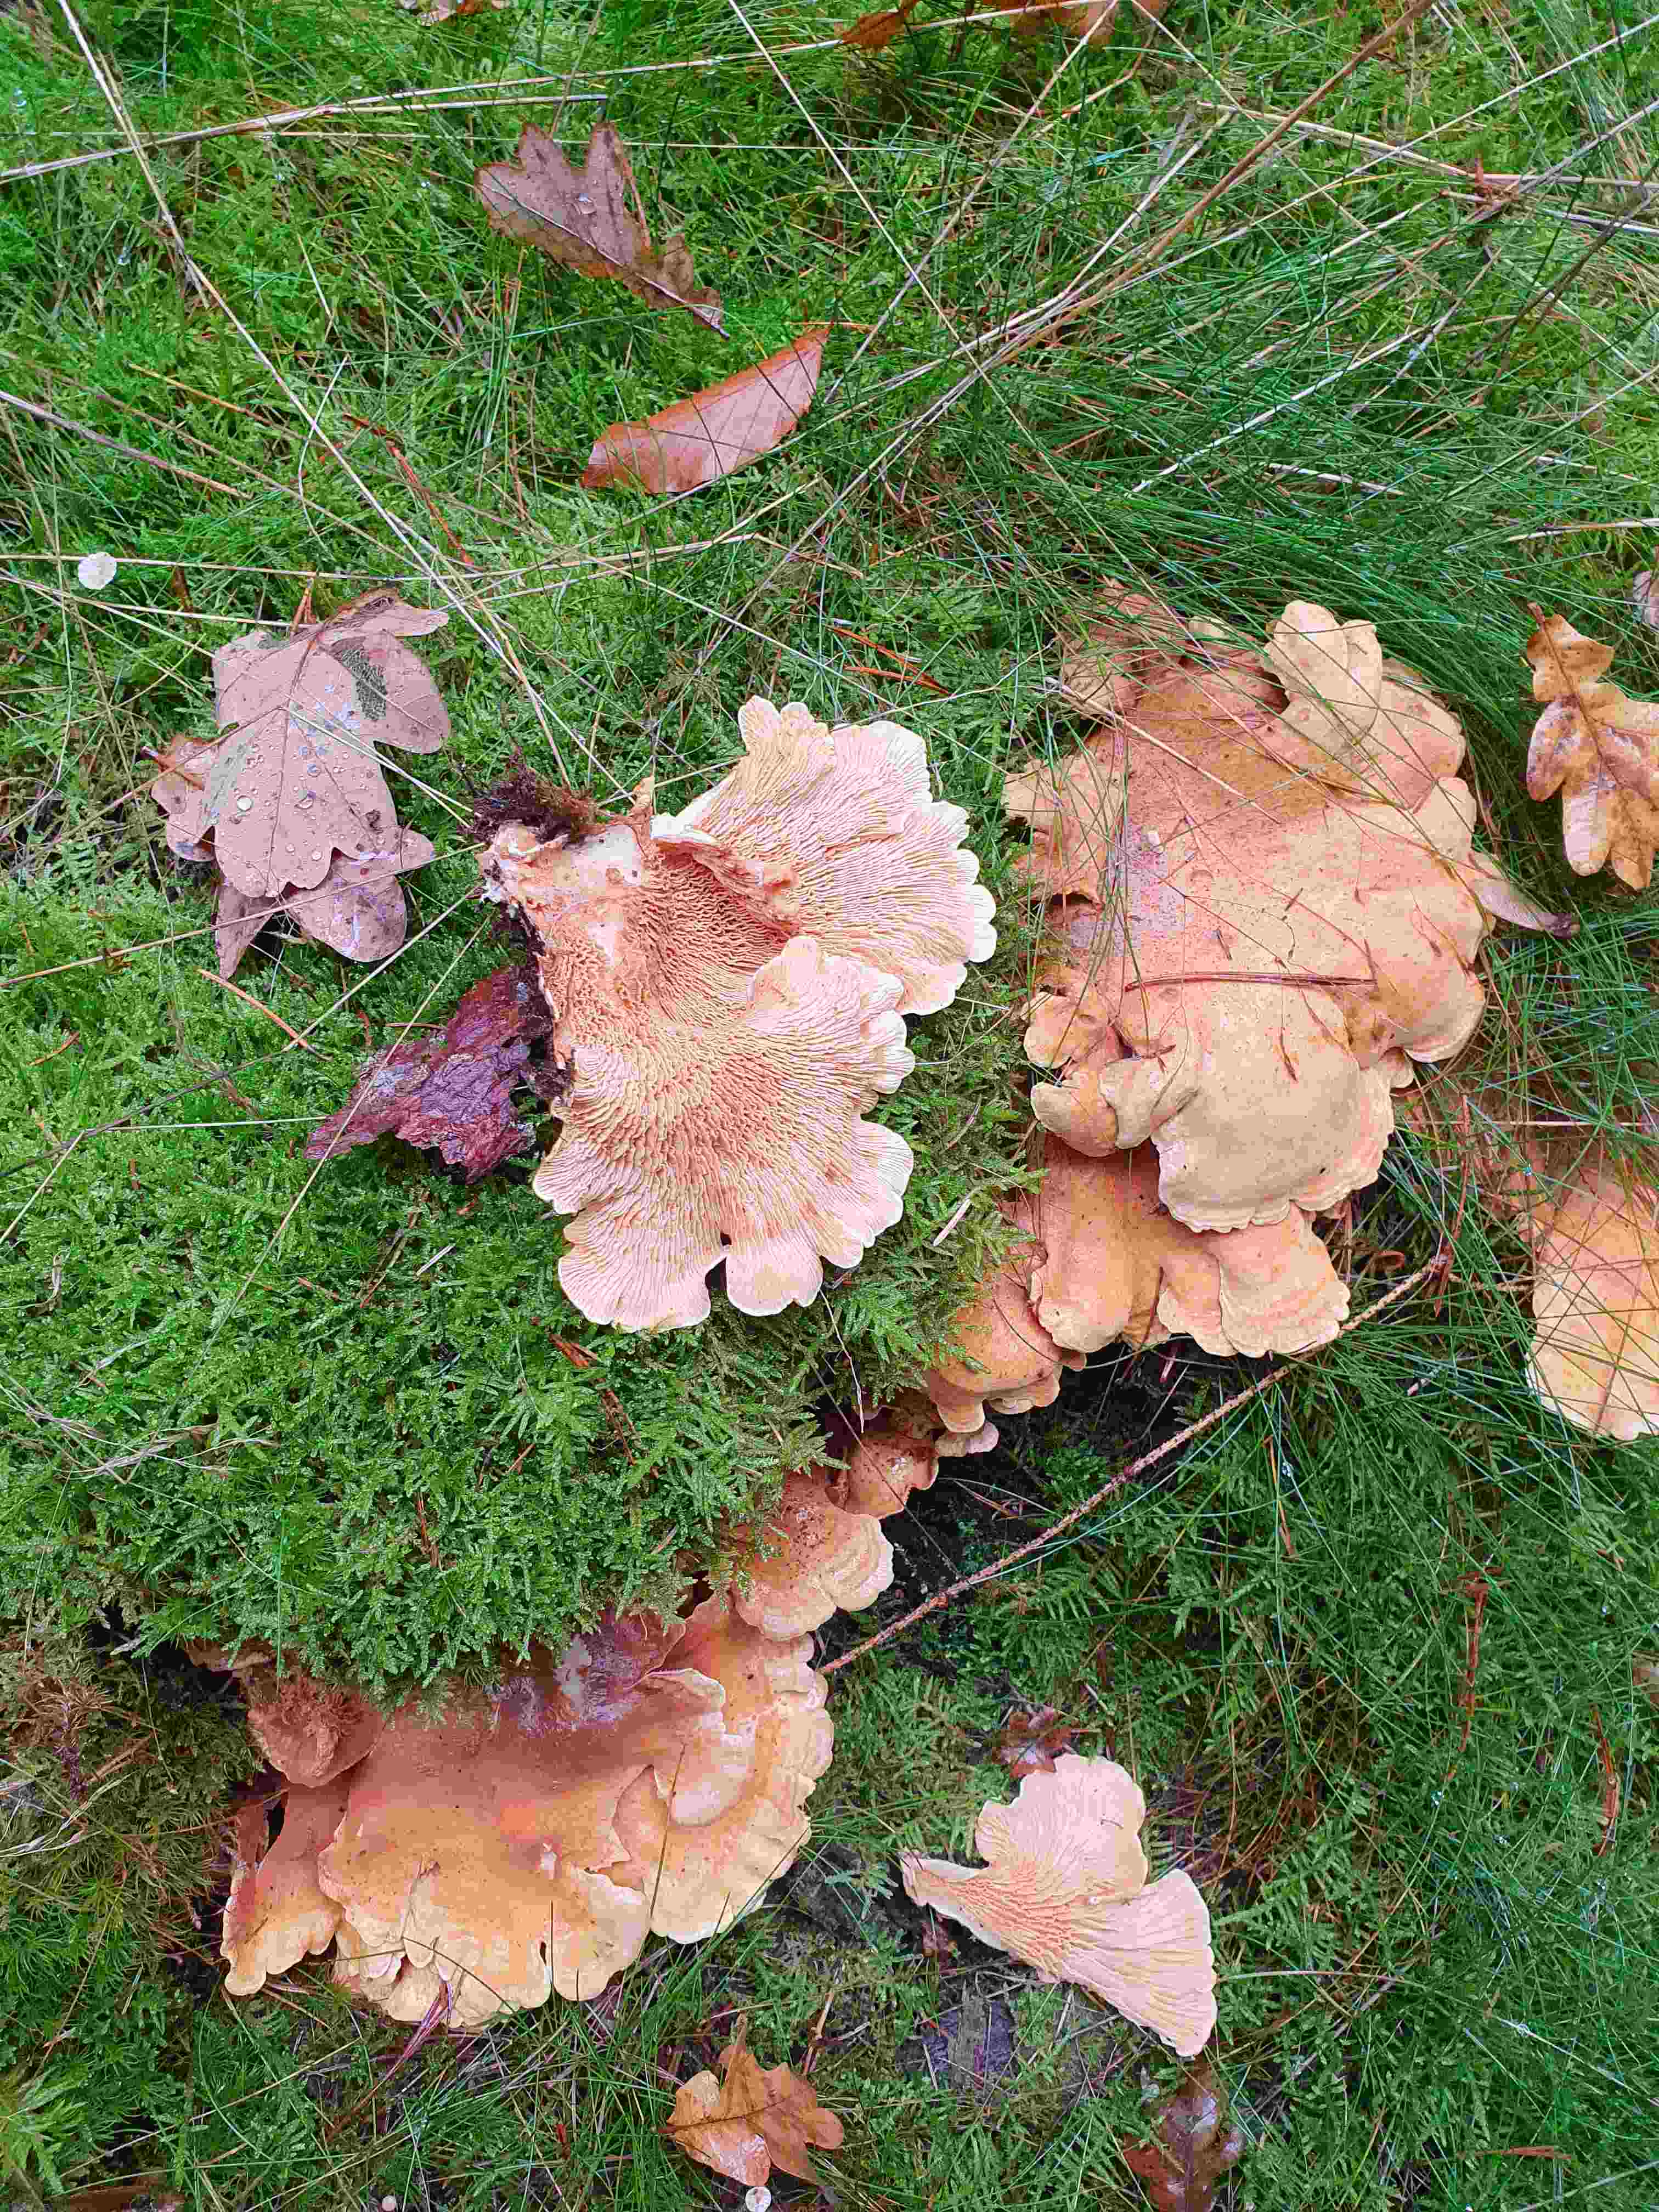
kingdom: Fungi
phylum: Basidiomycota
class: Agaricomycetes
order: Boletales
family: Tapinellaceae
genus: Tapinella
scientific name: Tapinella panuoides
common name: tømmer-viftesvamp
